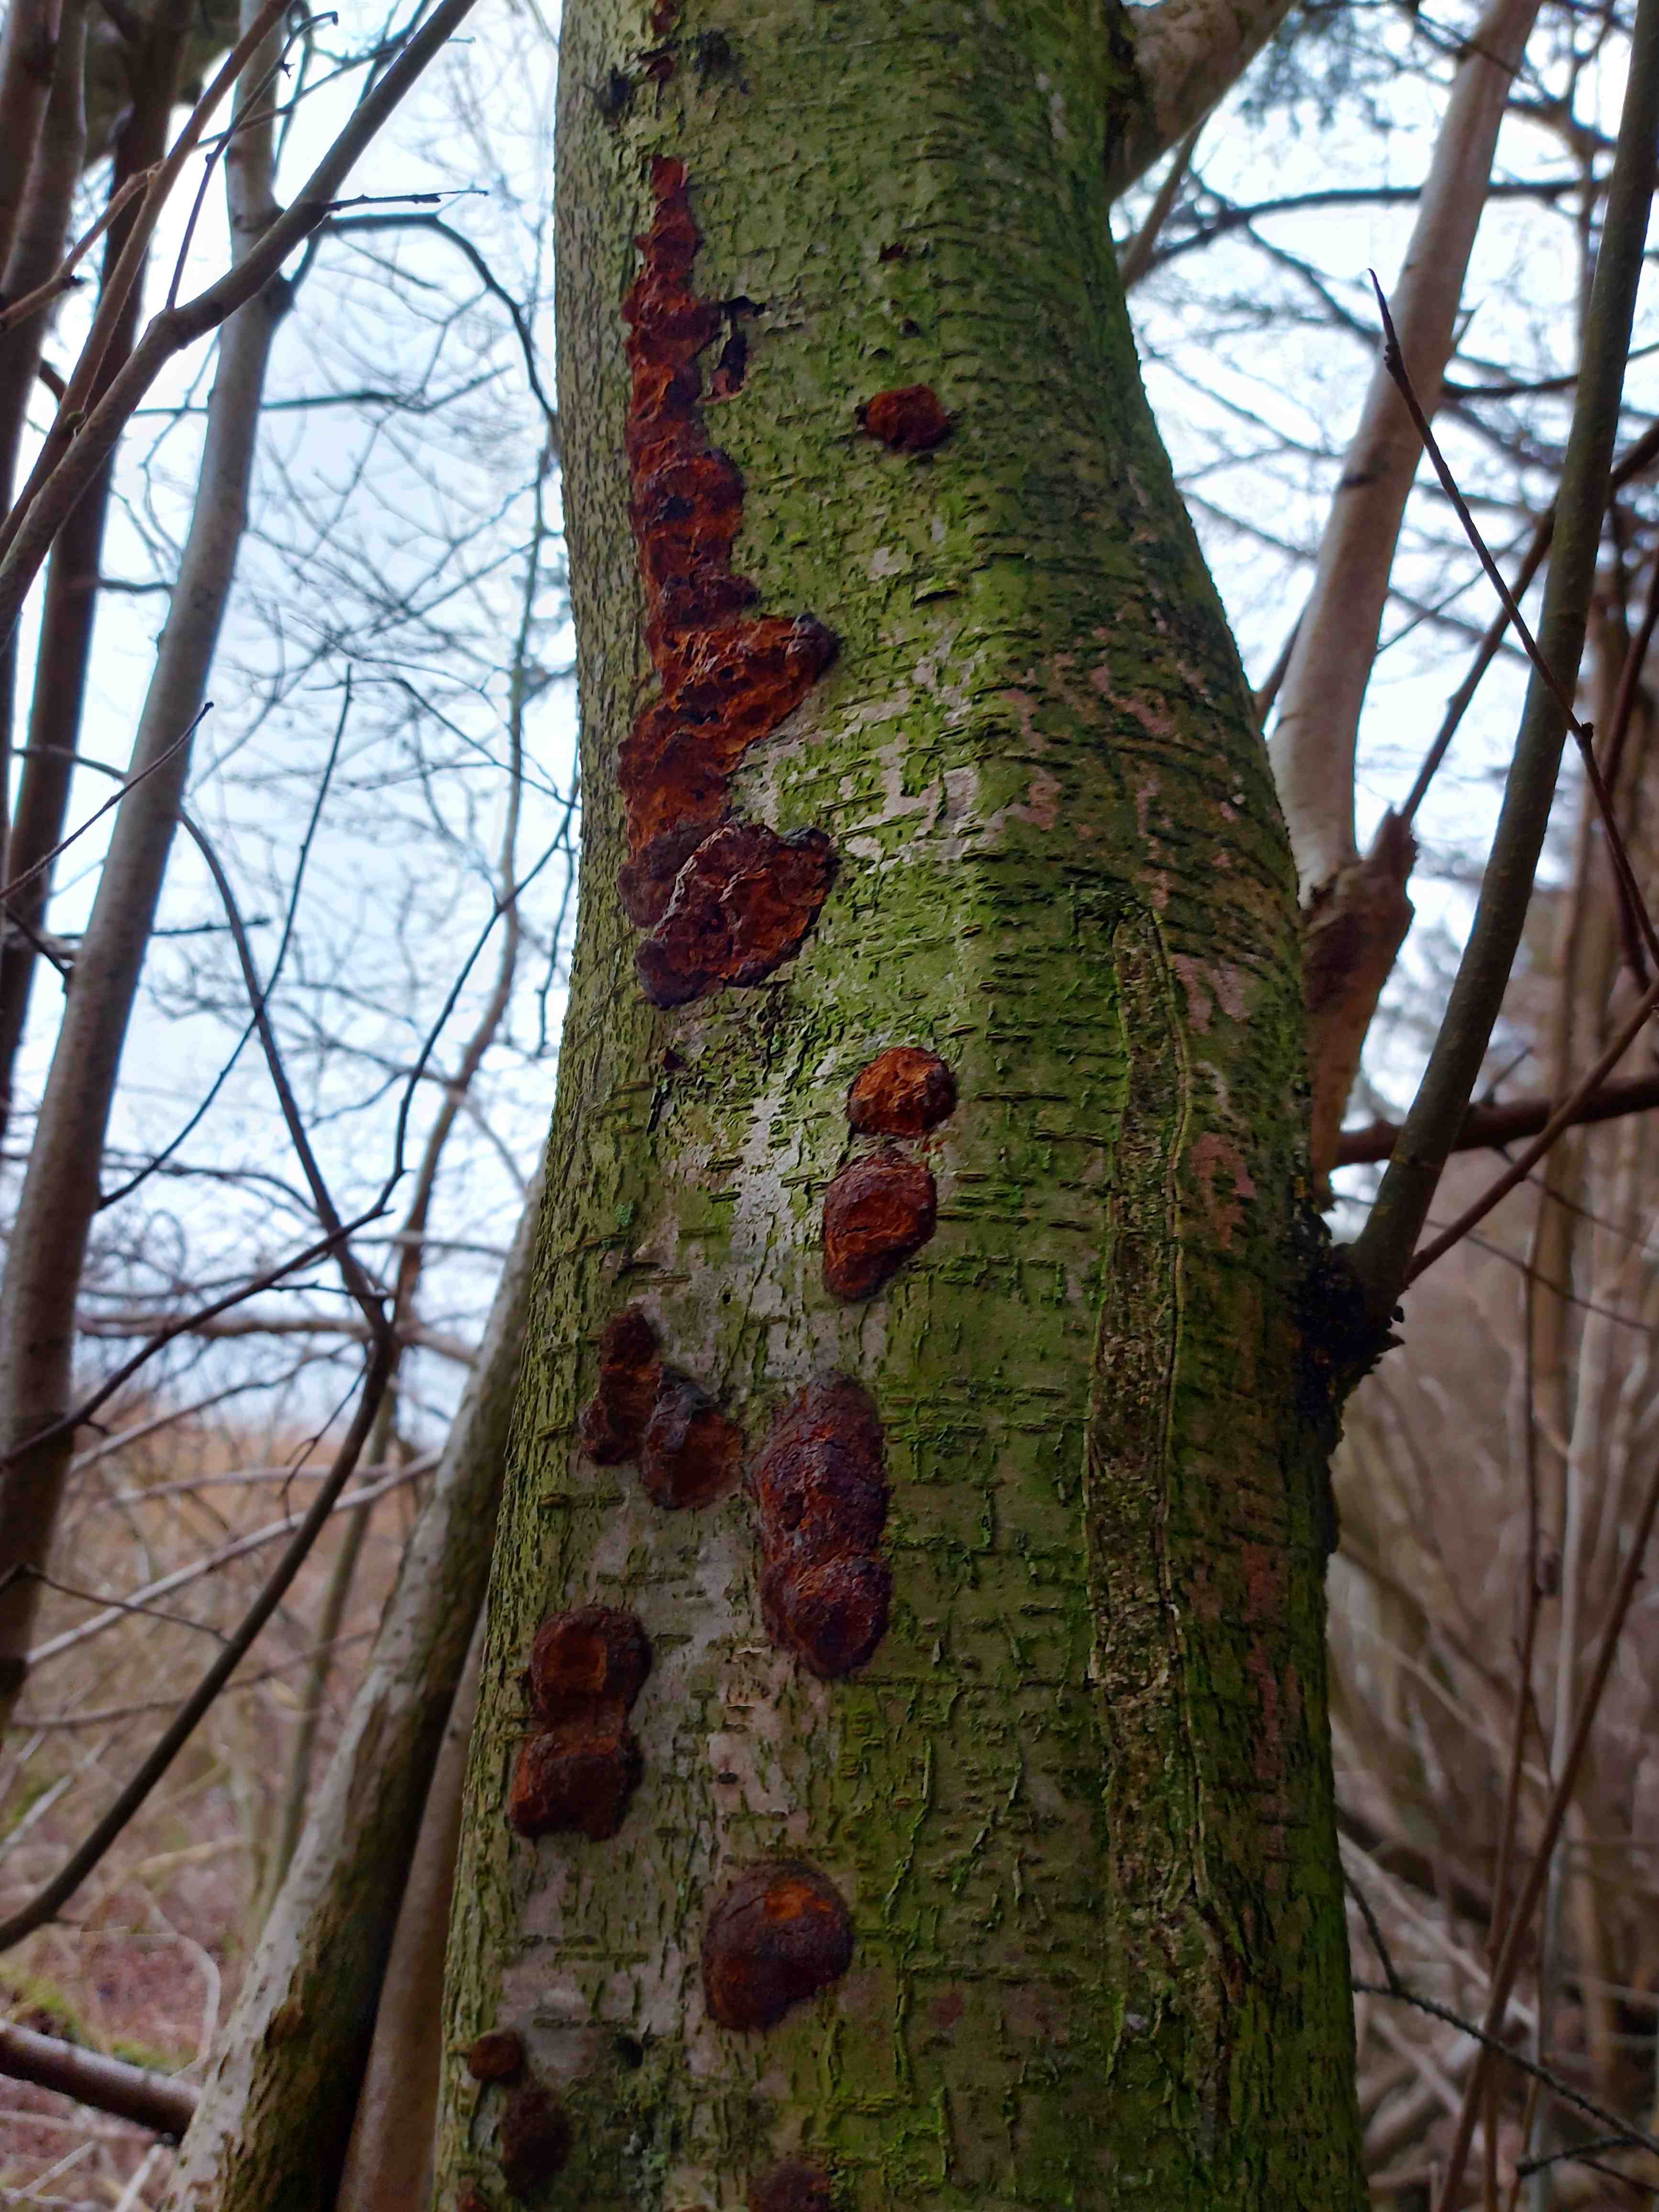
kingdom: Fungi
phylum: Basidiomycota
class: Agaricomycetes
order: Hymenochaetales
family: Hymenochaetaceae
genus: Xanthoporia
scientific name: Xanthoporia radiata
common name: elle-spejlporesvamp
